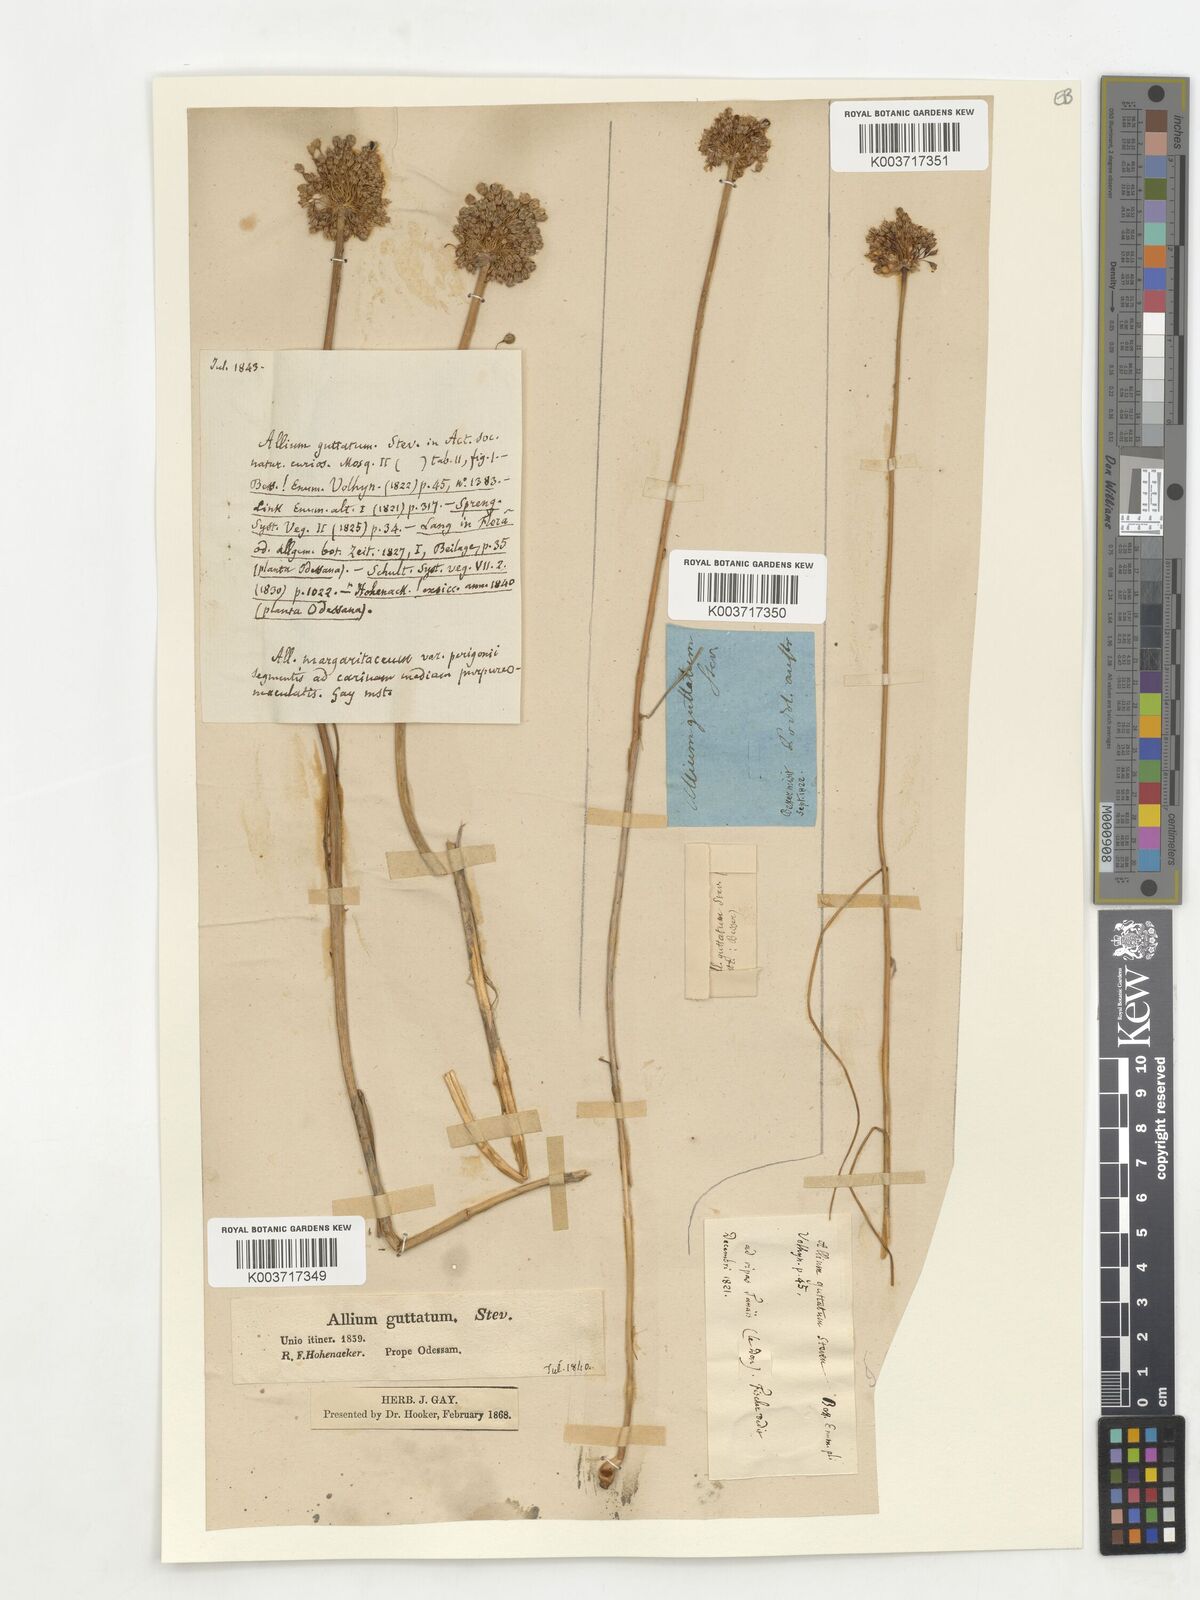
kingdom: Plantae
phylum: Tracheophyta
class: Liliopsida
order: Asparagales
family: Amaryllidaceae
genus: Allium
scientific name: Allium guttatum
